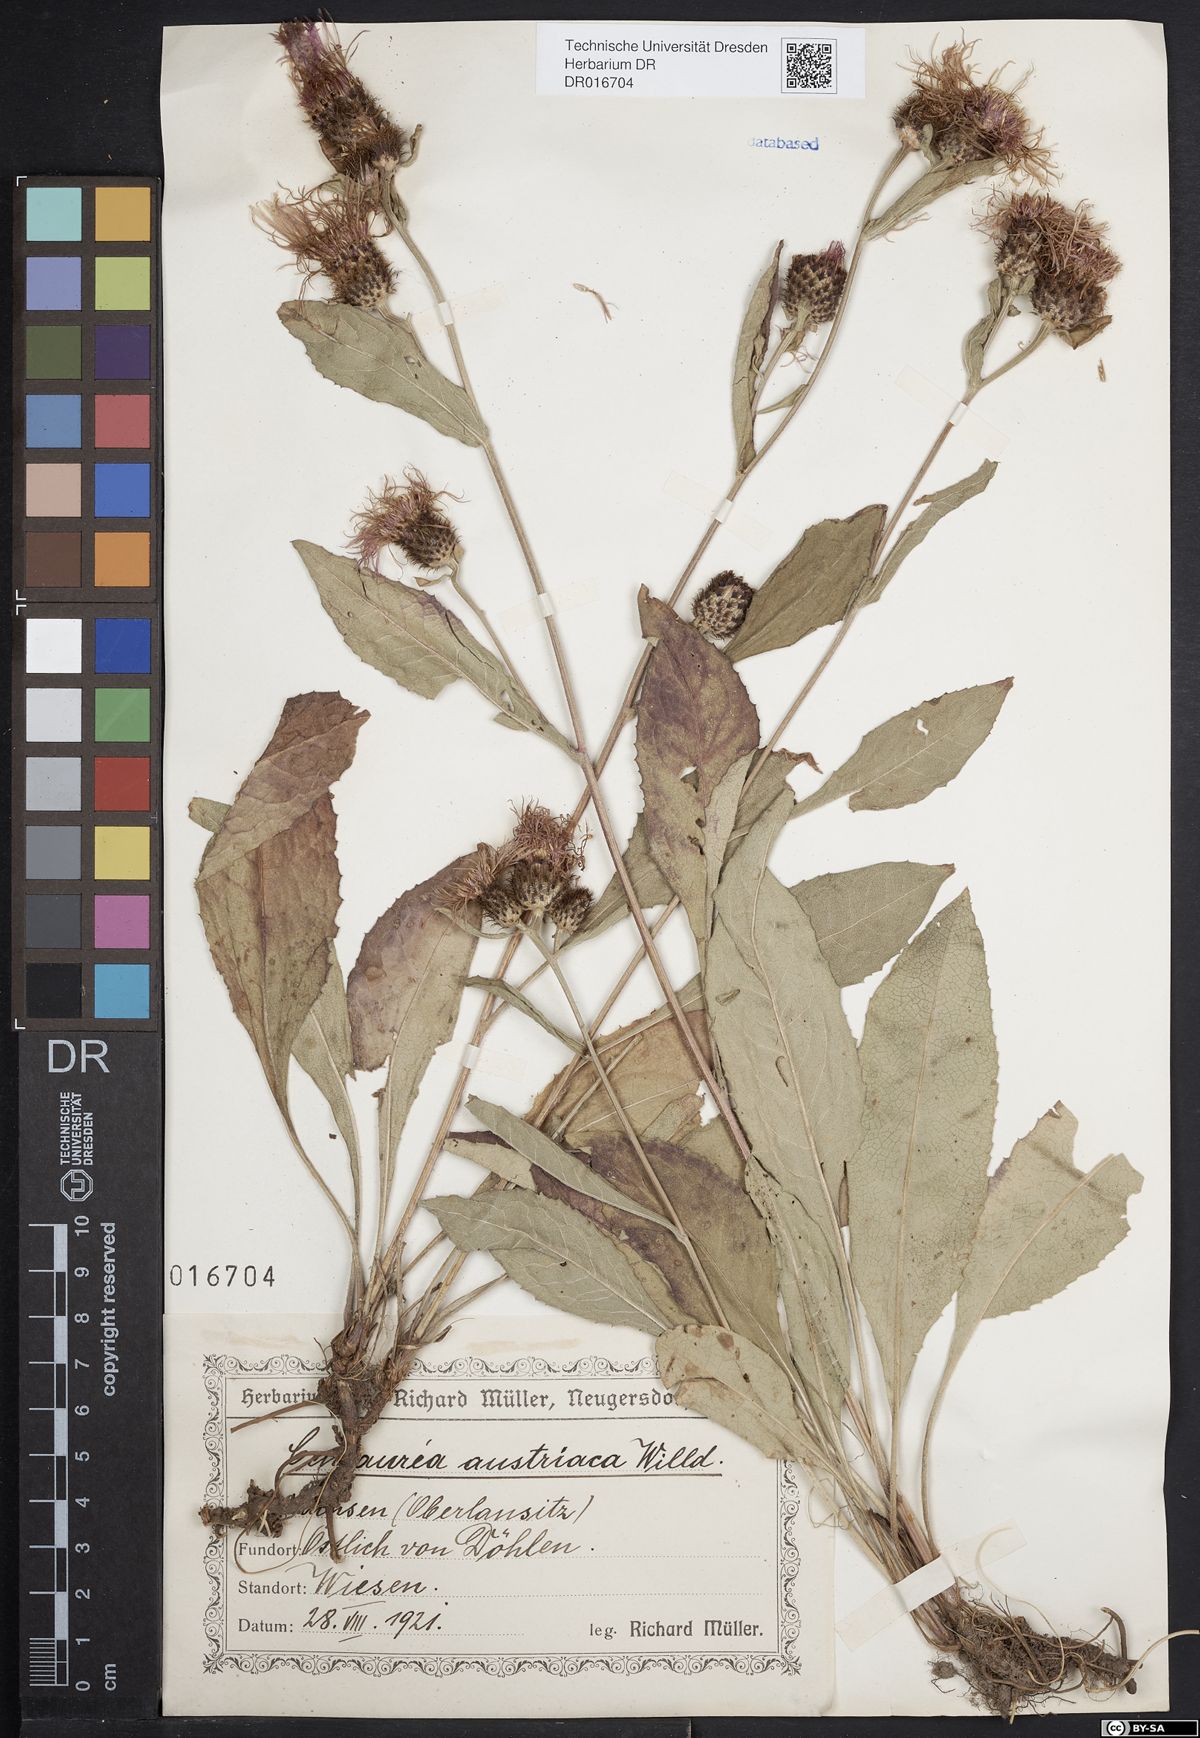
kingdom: Plantae
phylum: Tracheophyta
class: Magnoliopsida
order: Asterales
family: Asteraceae
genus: Centaurea
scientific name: Centaurea phrygia
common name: Wig knapweed
